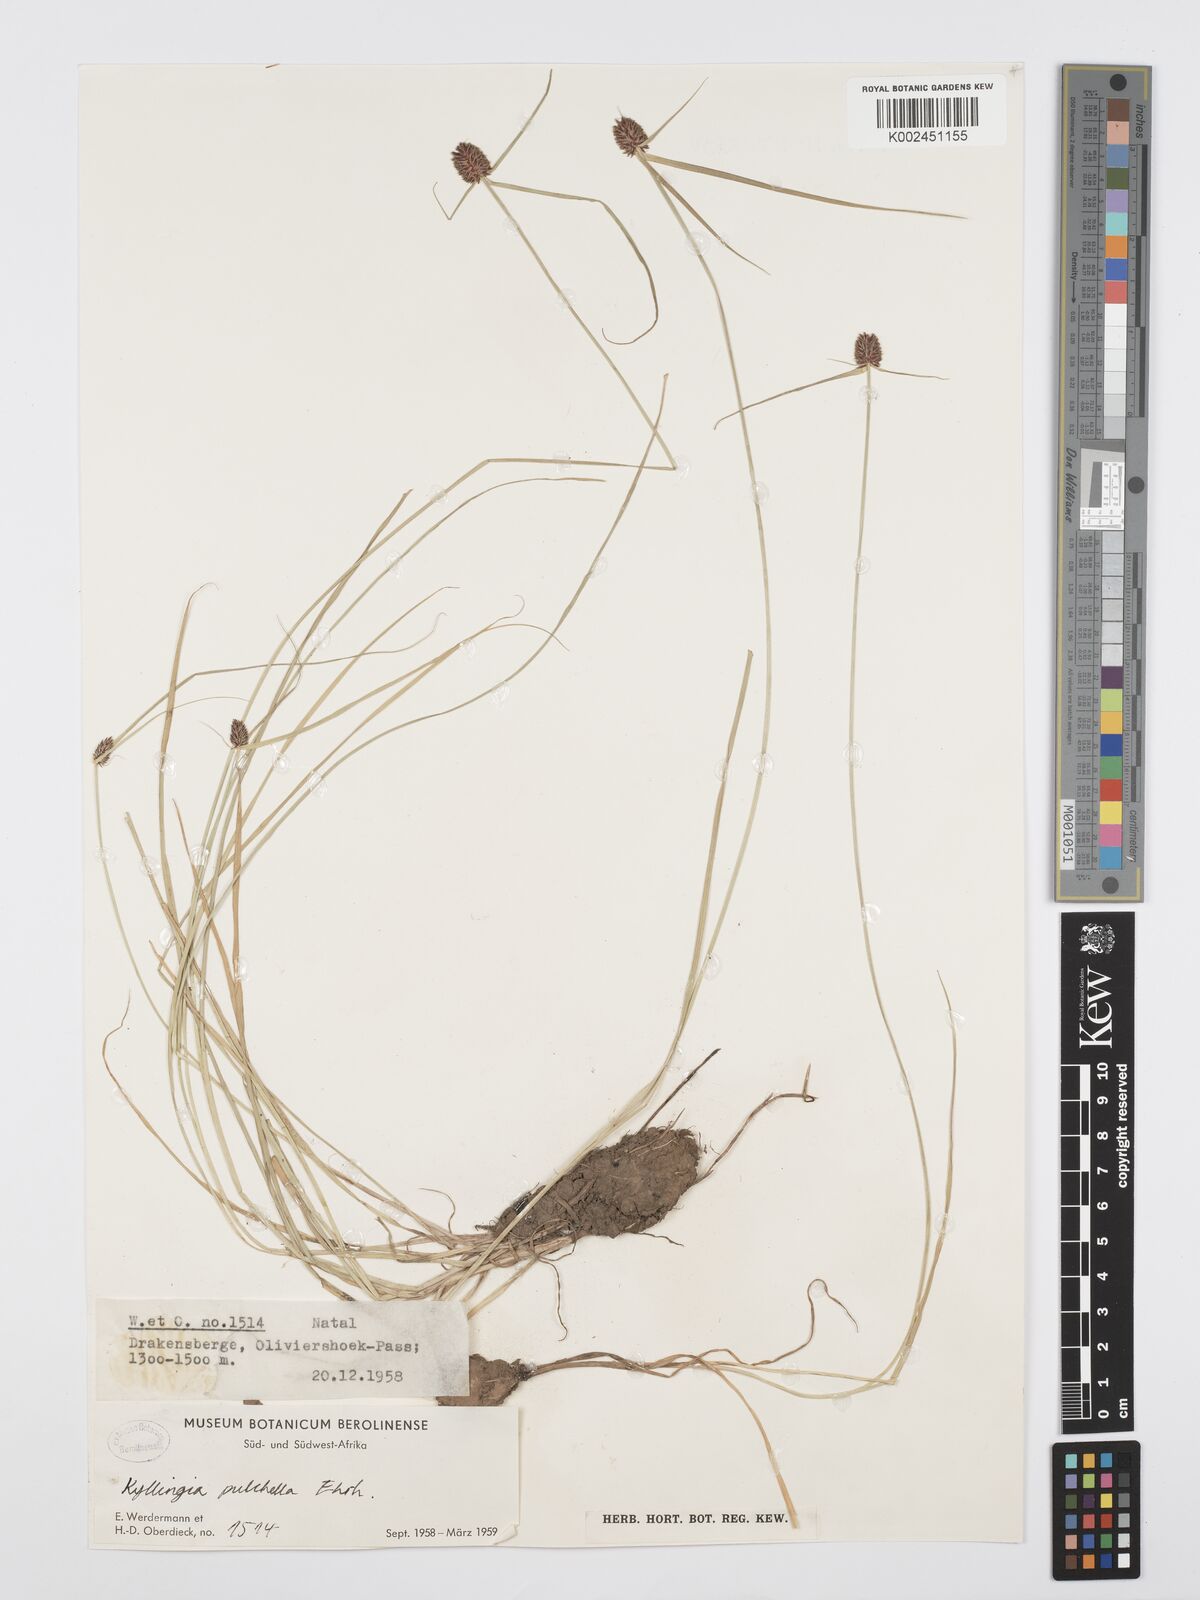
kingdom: Plantae
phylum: Tracheophyta
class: Liliopsida
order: Poales
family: Cyperaceae
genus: Cyperus
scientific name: Cyperus
